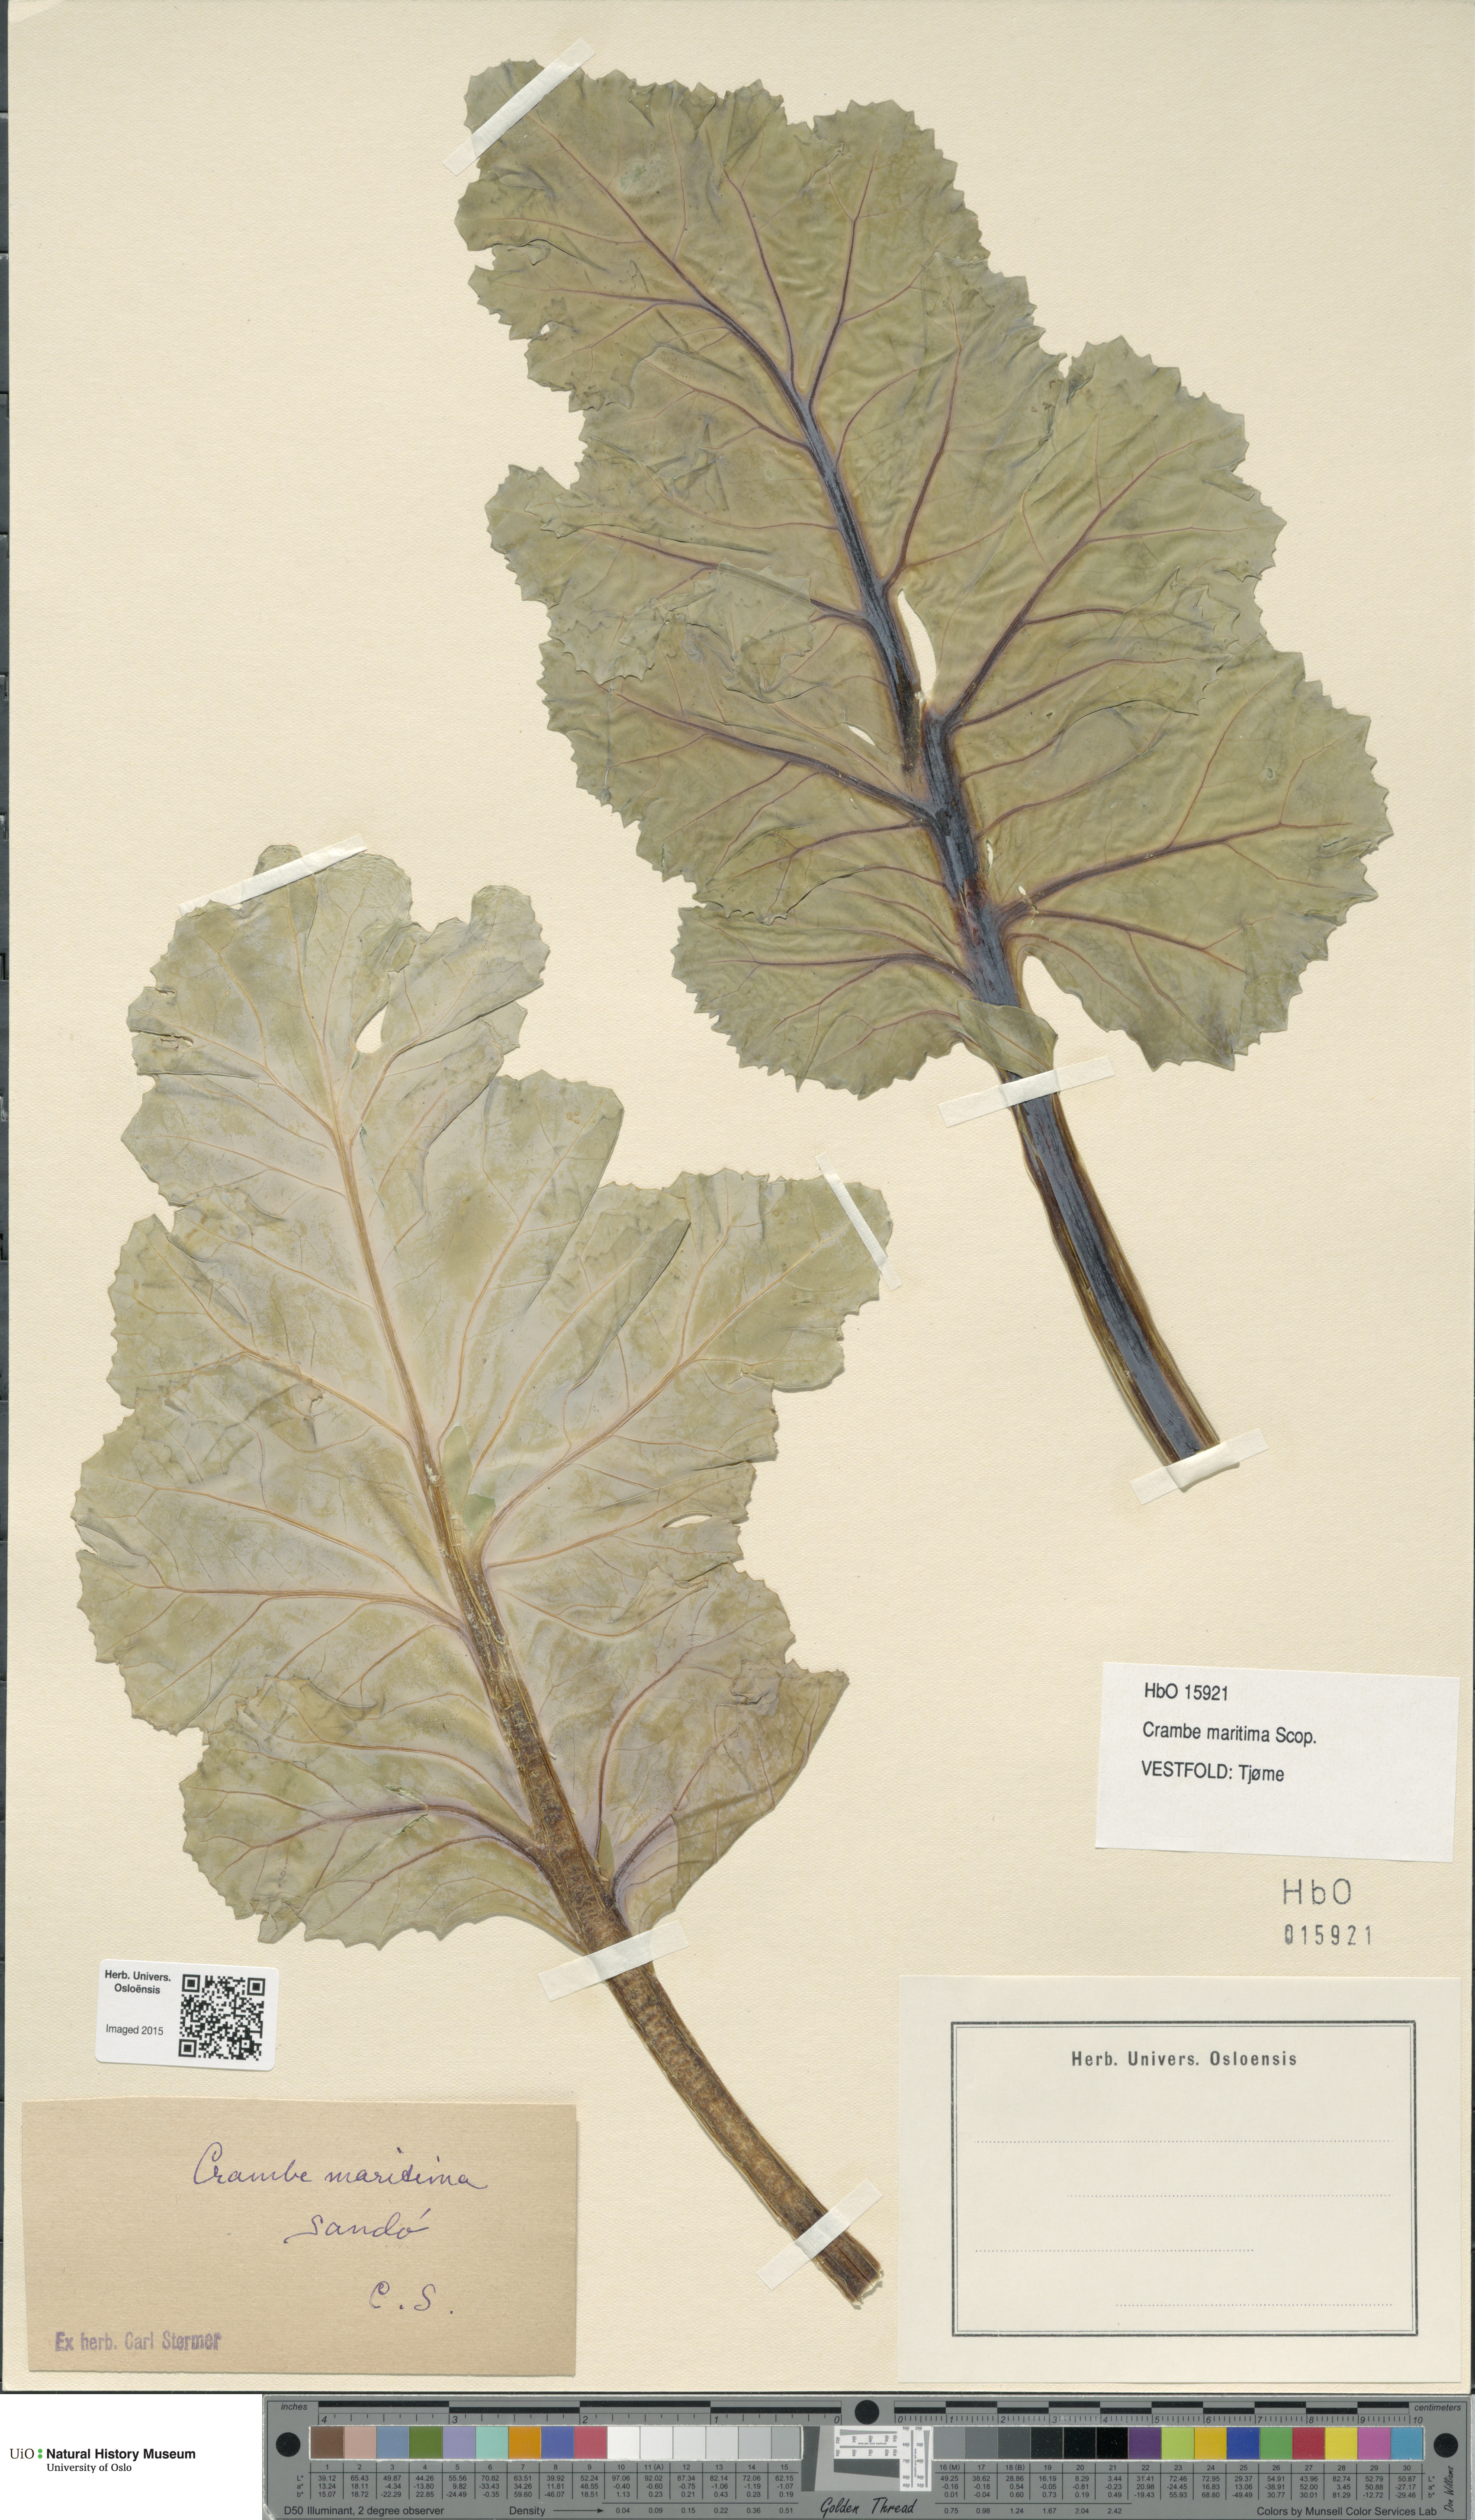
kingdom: Plantae
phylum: Tracheophyta
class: Magnoliopsida
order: Brassicales
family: Brassicaceae
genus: Crambe
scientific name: Crambe maritima
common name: Sea-kale
